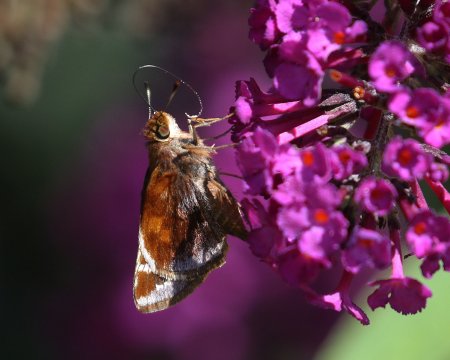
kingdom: Animalia
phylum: Arthropoda
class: Insecta
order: Lepidoptera
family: Hesperiidae
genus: Lon
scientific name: Lon zabulon
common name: Zabulon Skipper
